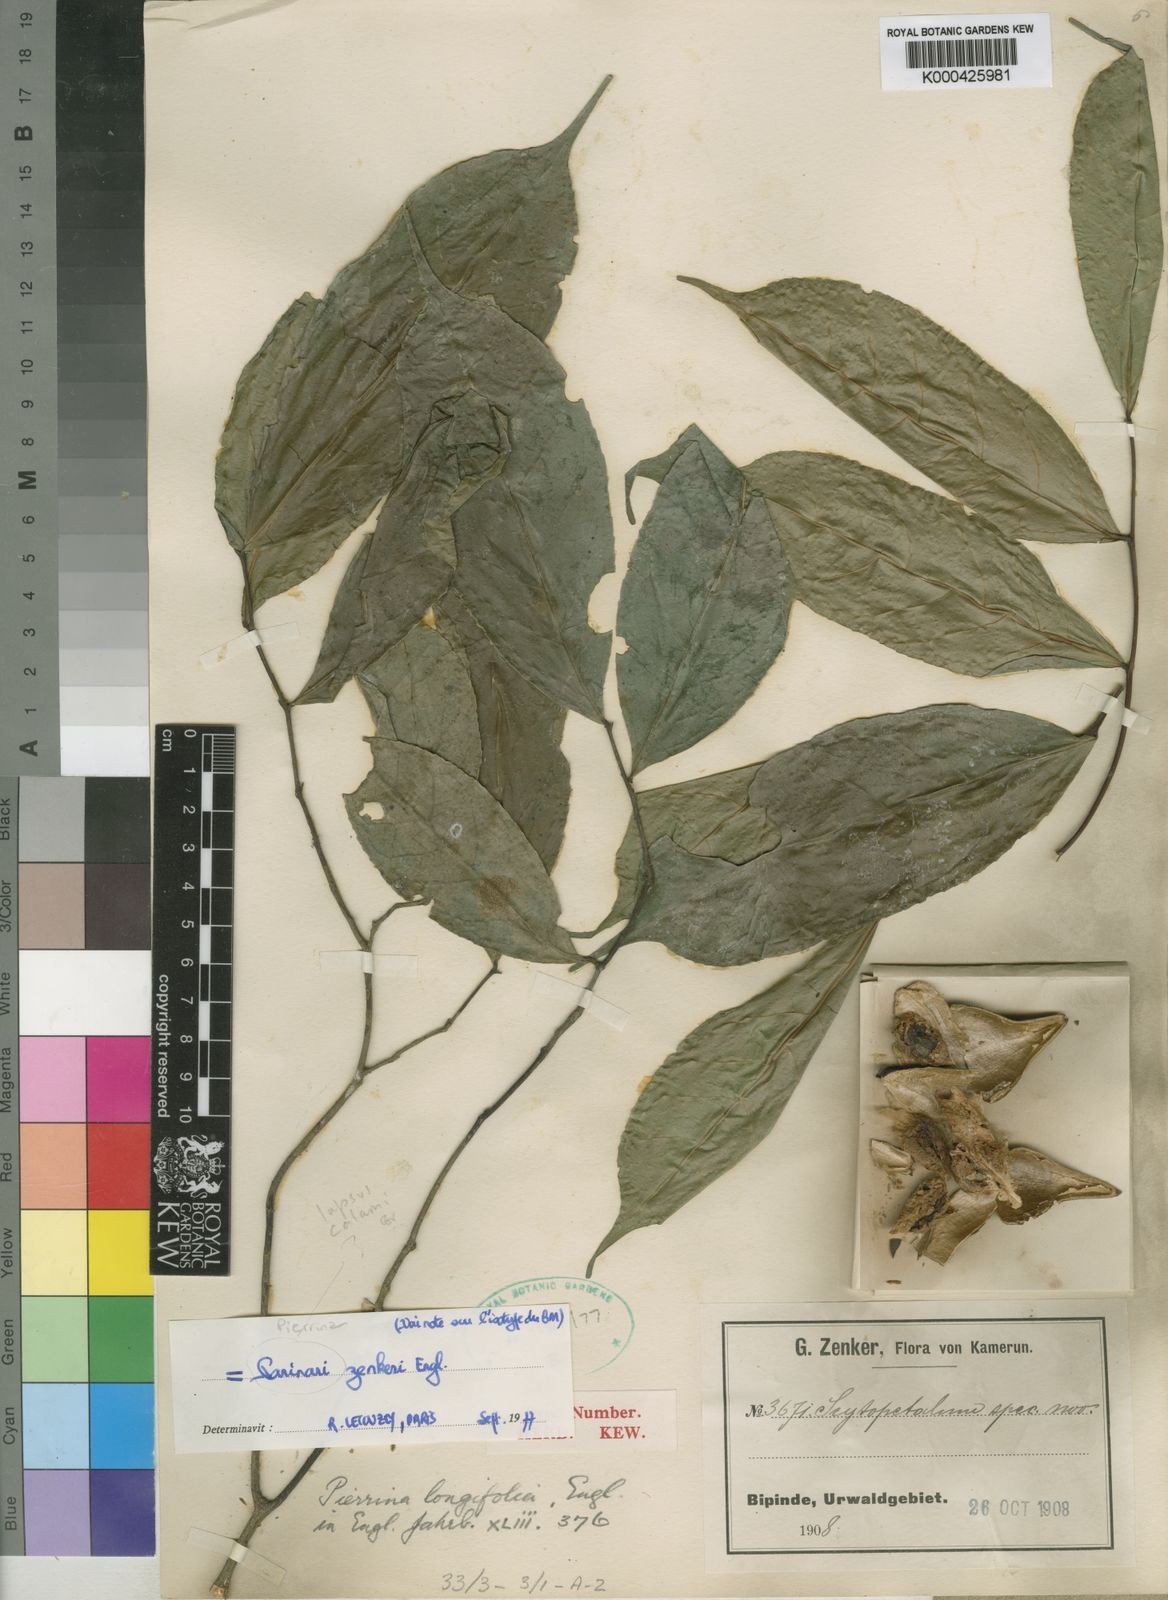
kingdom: Plantae
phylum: Tracheophyta
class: Magnoliopsida
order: Ericales
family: Lecythidaceae
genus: Pierrina
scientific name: Pierrina zenkeri
